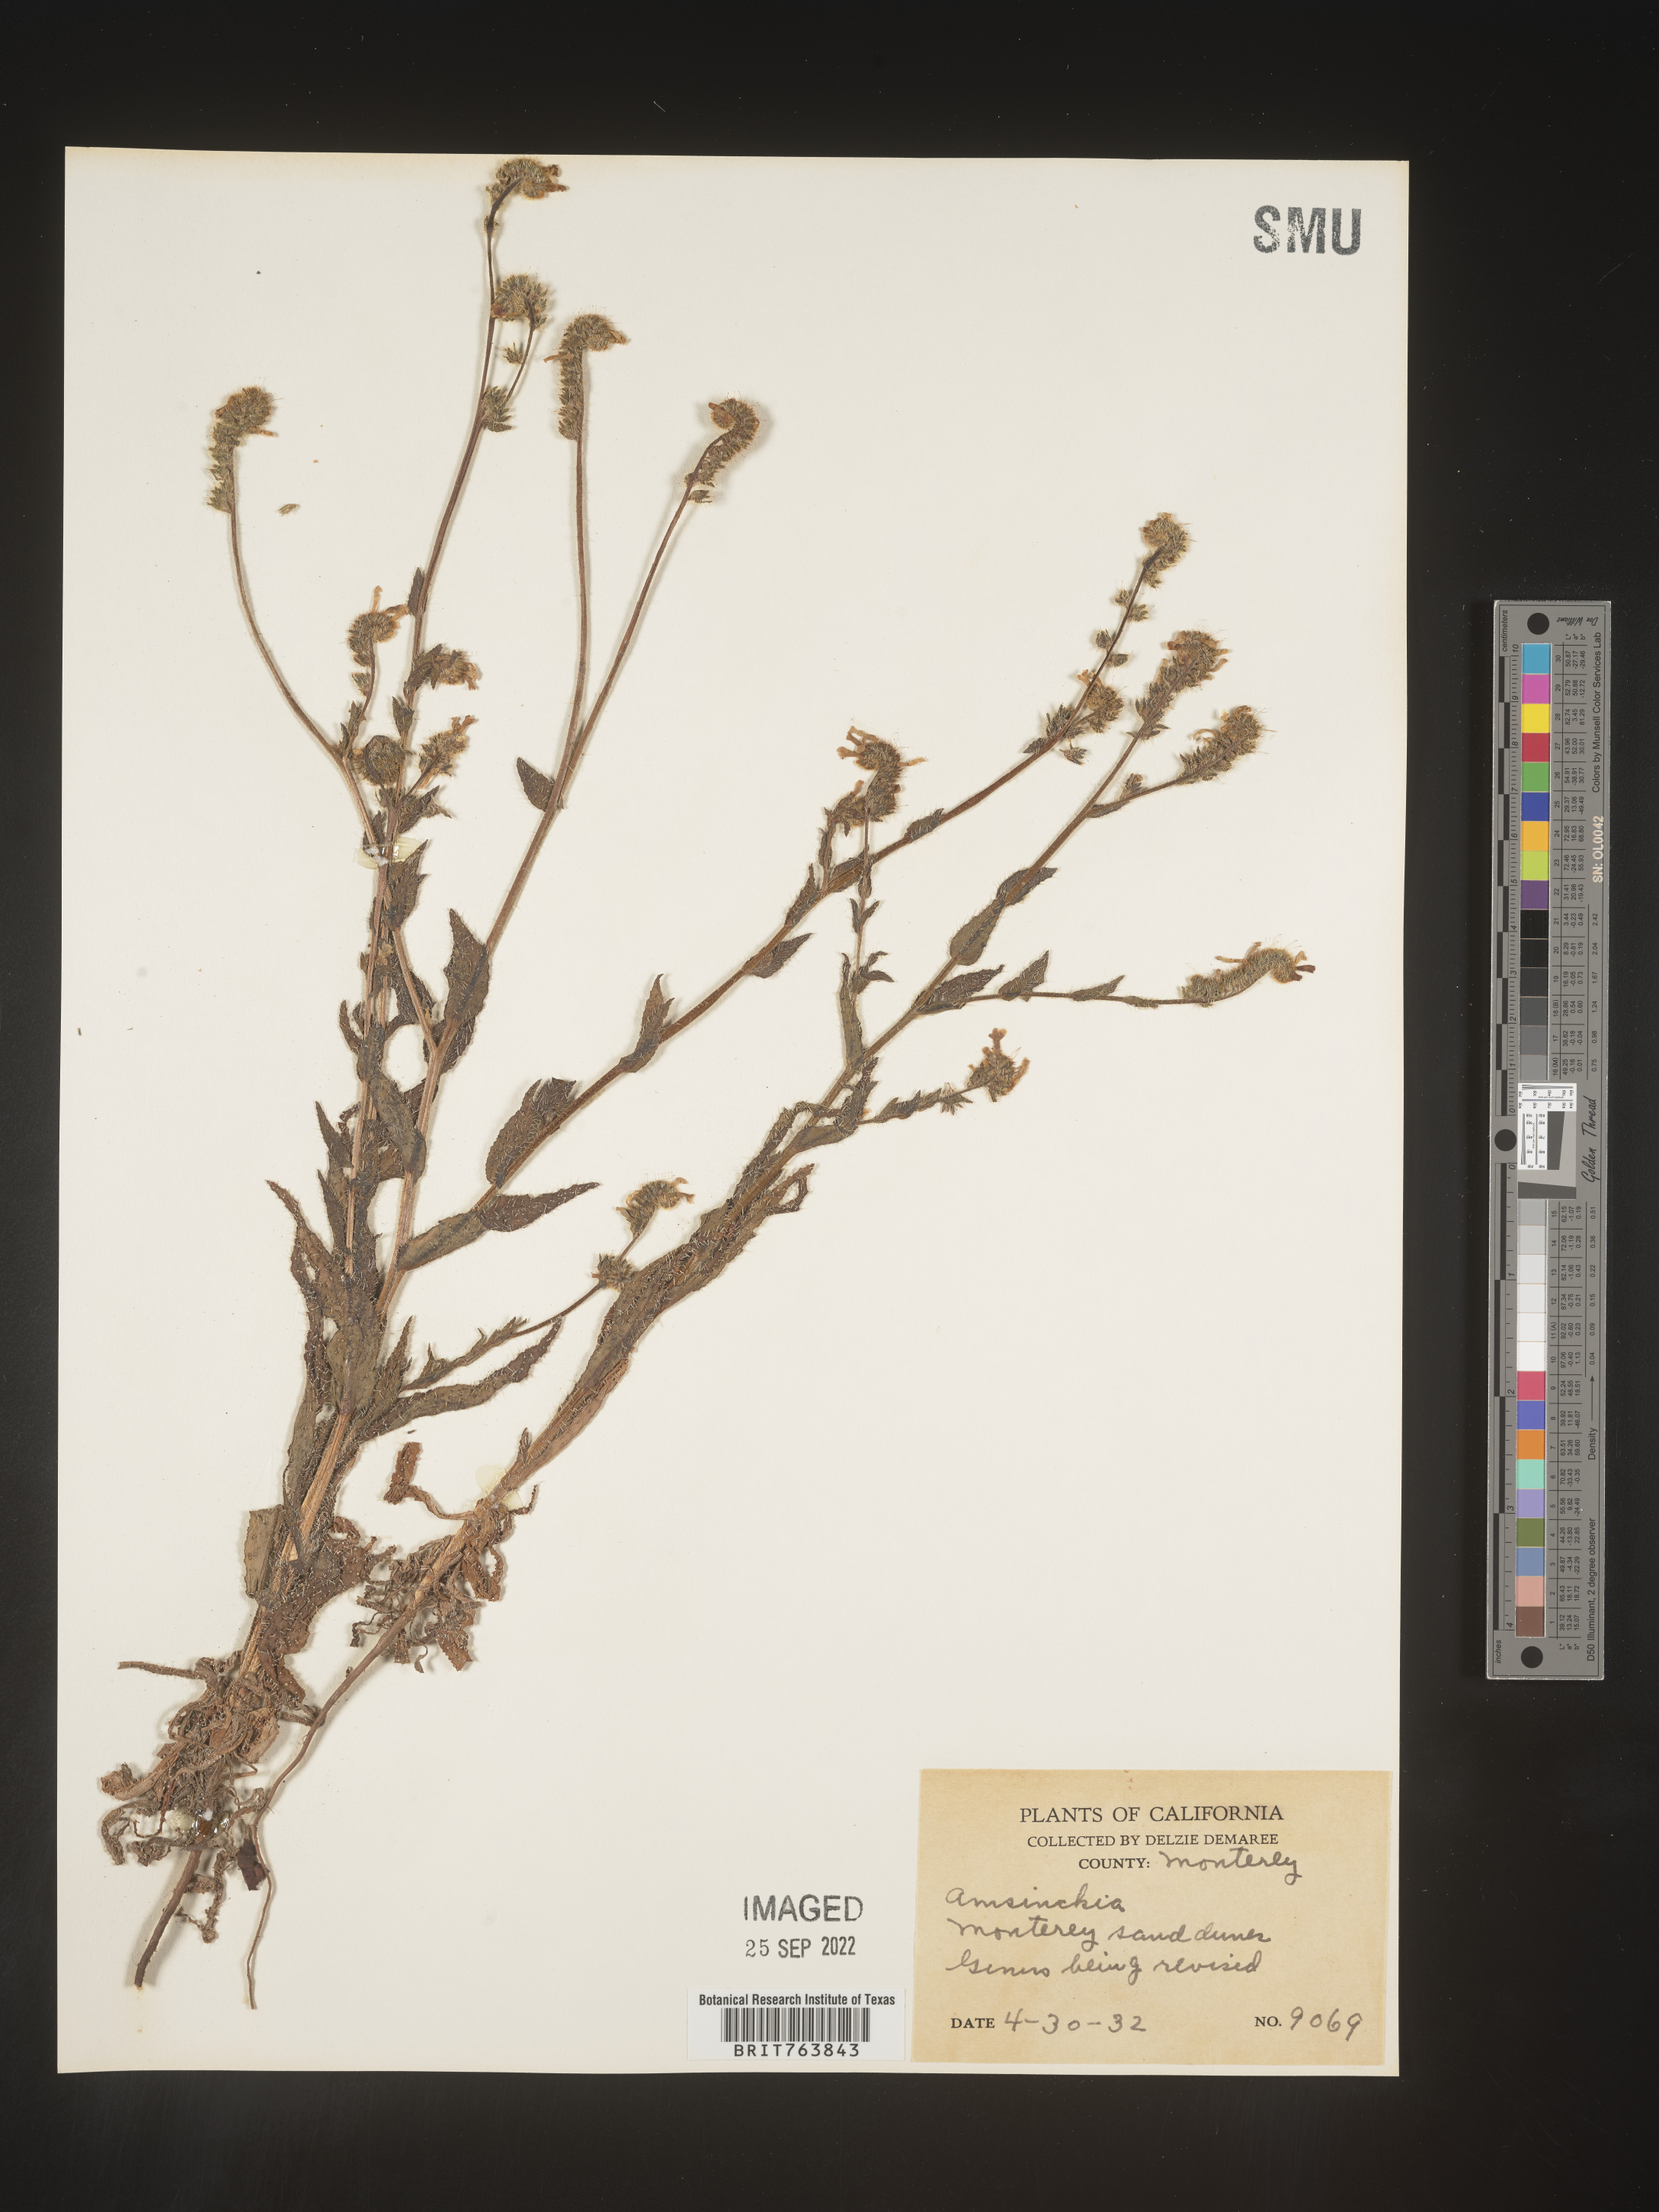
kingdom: Plantae
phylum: Tracheophyta
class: Magnoliopsida
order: Boraginales
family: Boraginaceae
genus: Amsinckia
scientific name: Amsinckia
